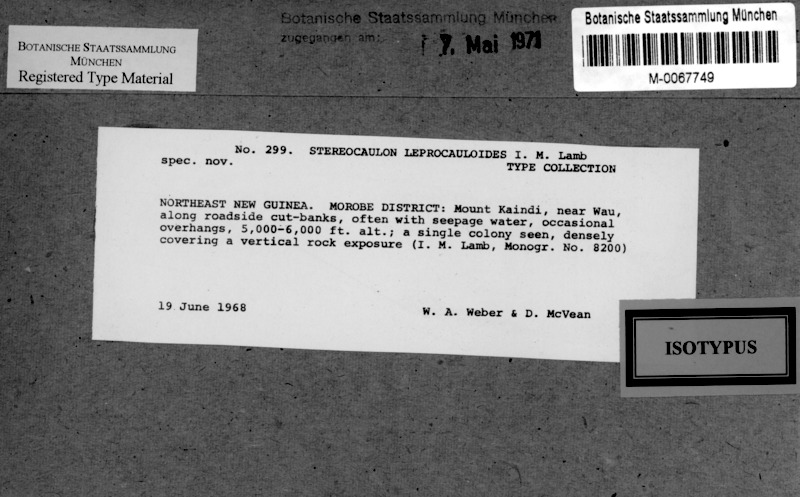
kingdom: Fungi
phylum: Ascomycota
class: Lecanoromycetes
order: Lecanorales
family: Stereocaulaceae
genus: Stereocaulon
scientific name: Stereocaulon leprocauloides
